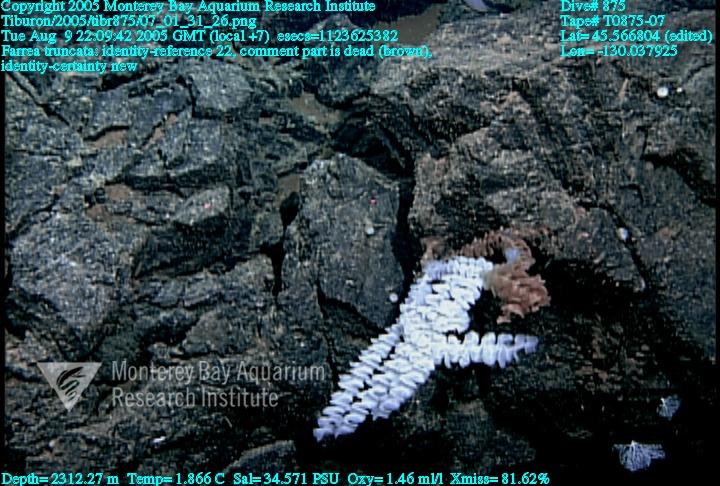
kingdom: Animalia
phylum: Porifera
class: Hexactinellida
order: Sceptrulophora
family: Farreidae
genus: Farrea
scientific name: Farrea truncata
